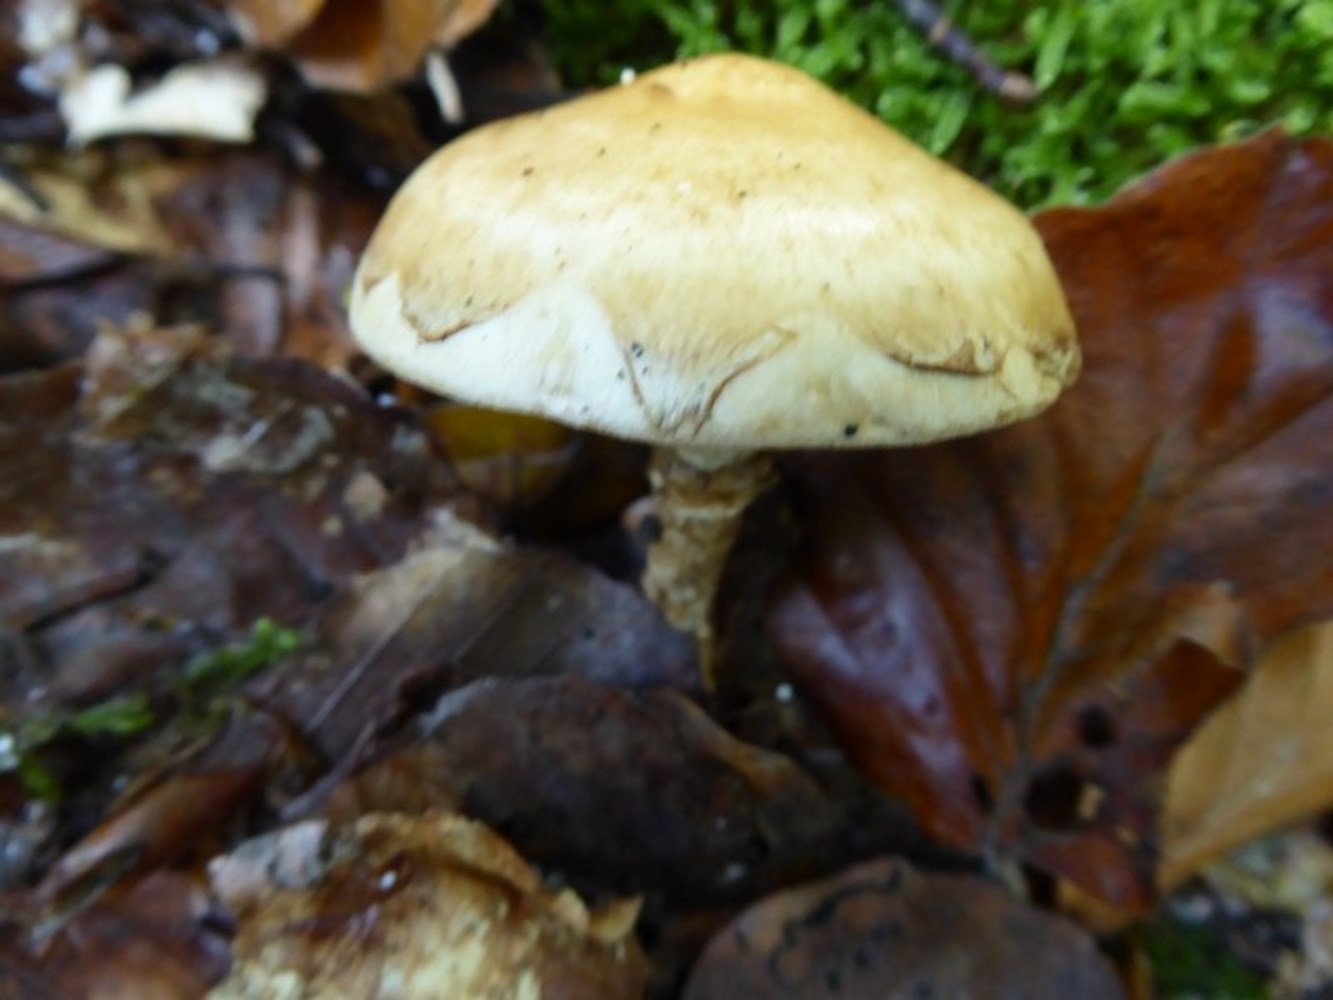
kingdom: Fungi
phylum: Basidiomycota
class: Agaricomycetes
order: Agaricales
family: Hymenogastraceae
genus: Hebeloma
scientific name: Hebeloma radicosum
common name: pælerods-tåreblad
